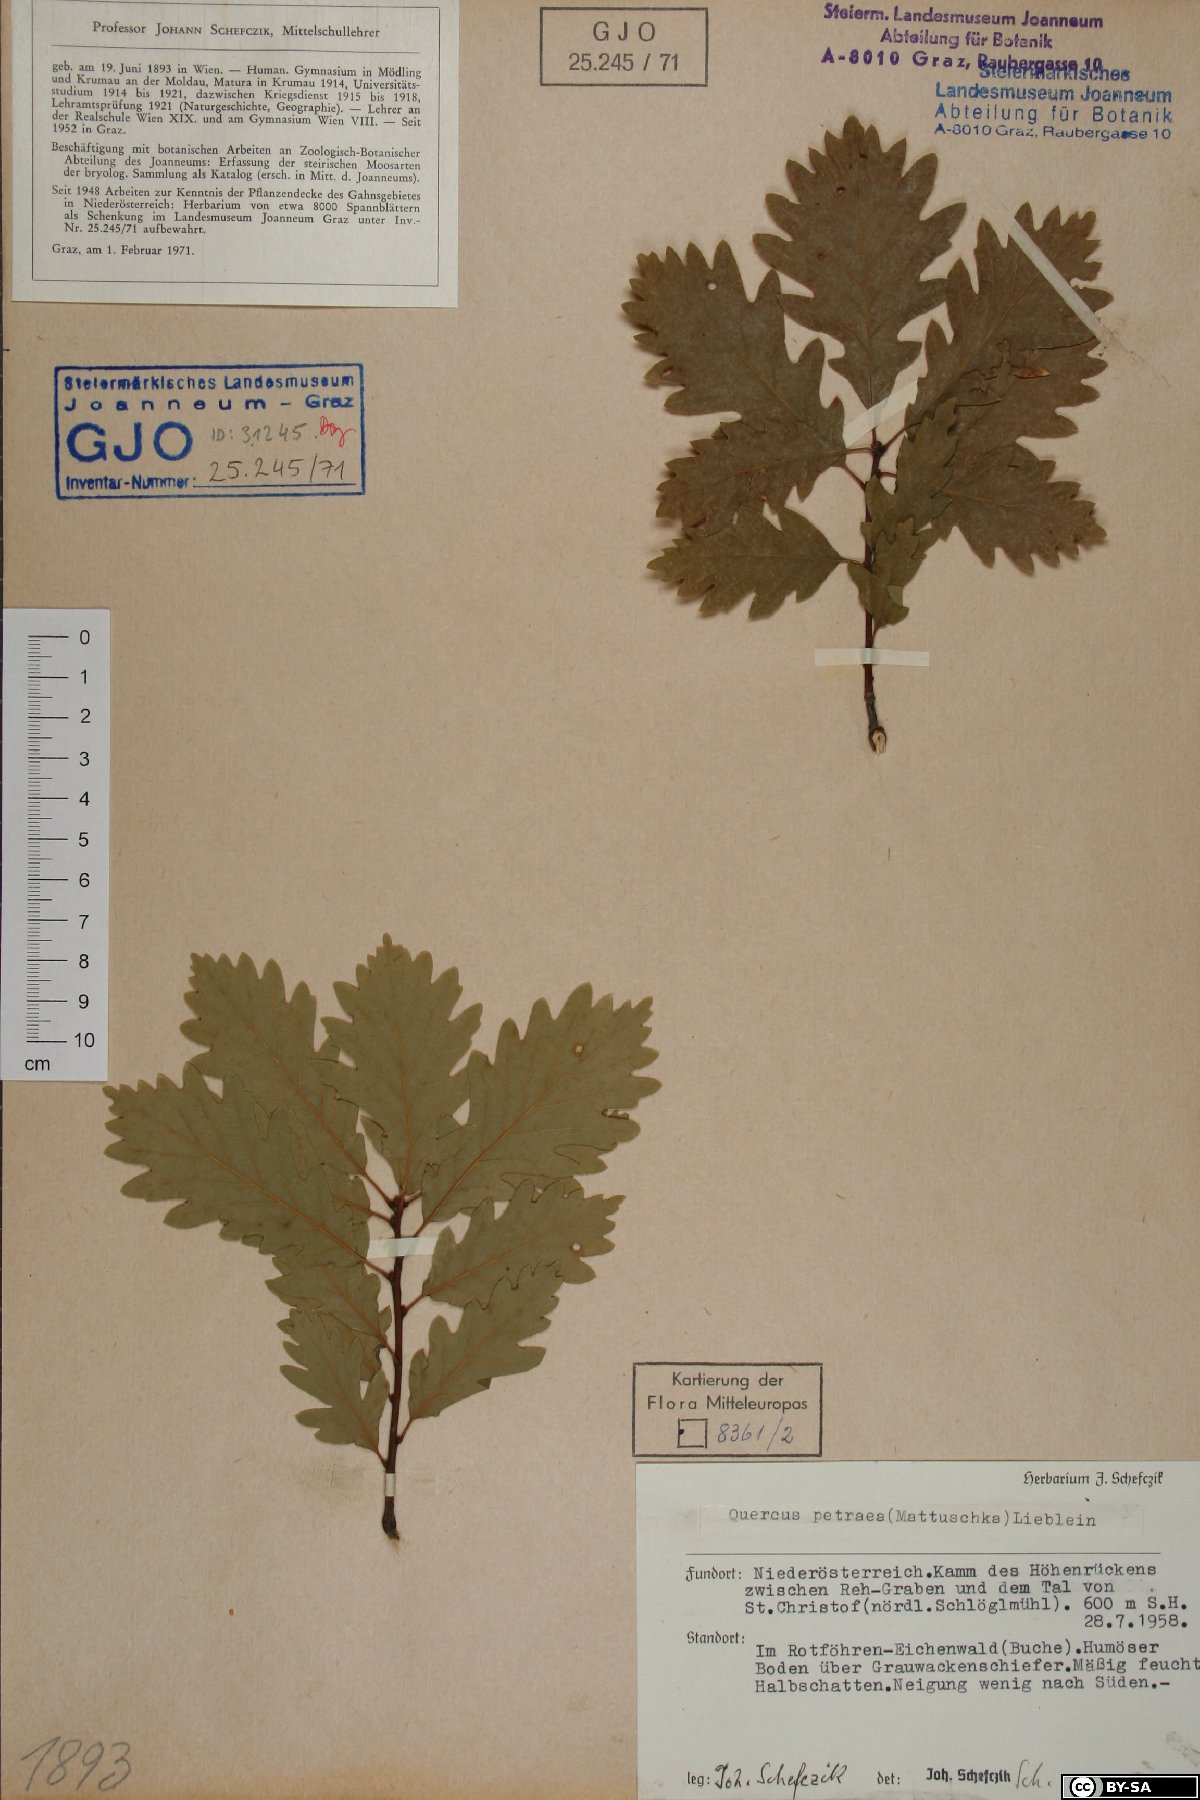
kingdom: Plantae
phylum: Tracheophyta
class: Magnoliopsida
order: Fagales
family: Fagaceae
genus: Quercus
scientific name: Quercus petraea
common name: Sessile oak
